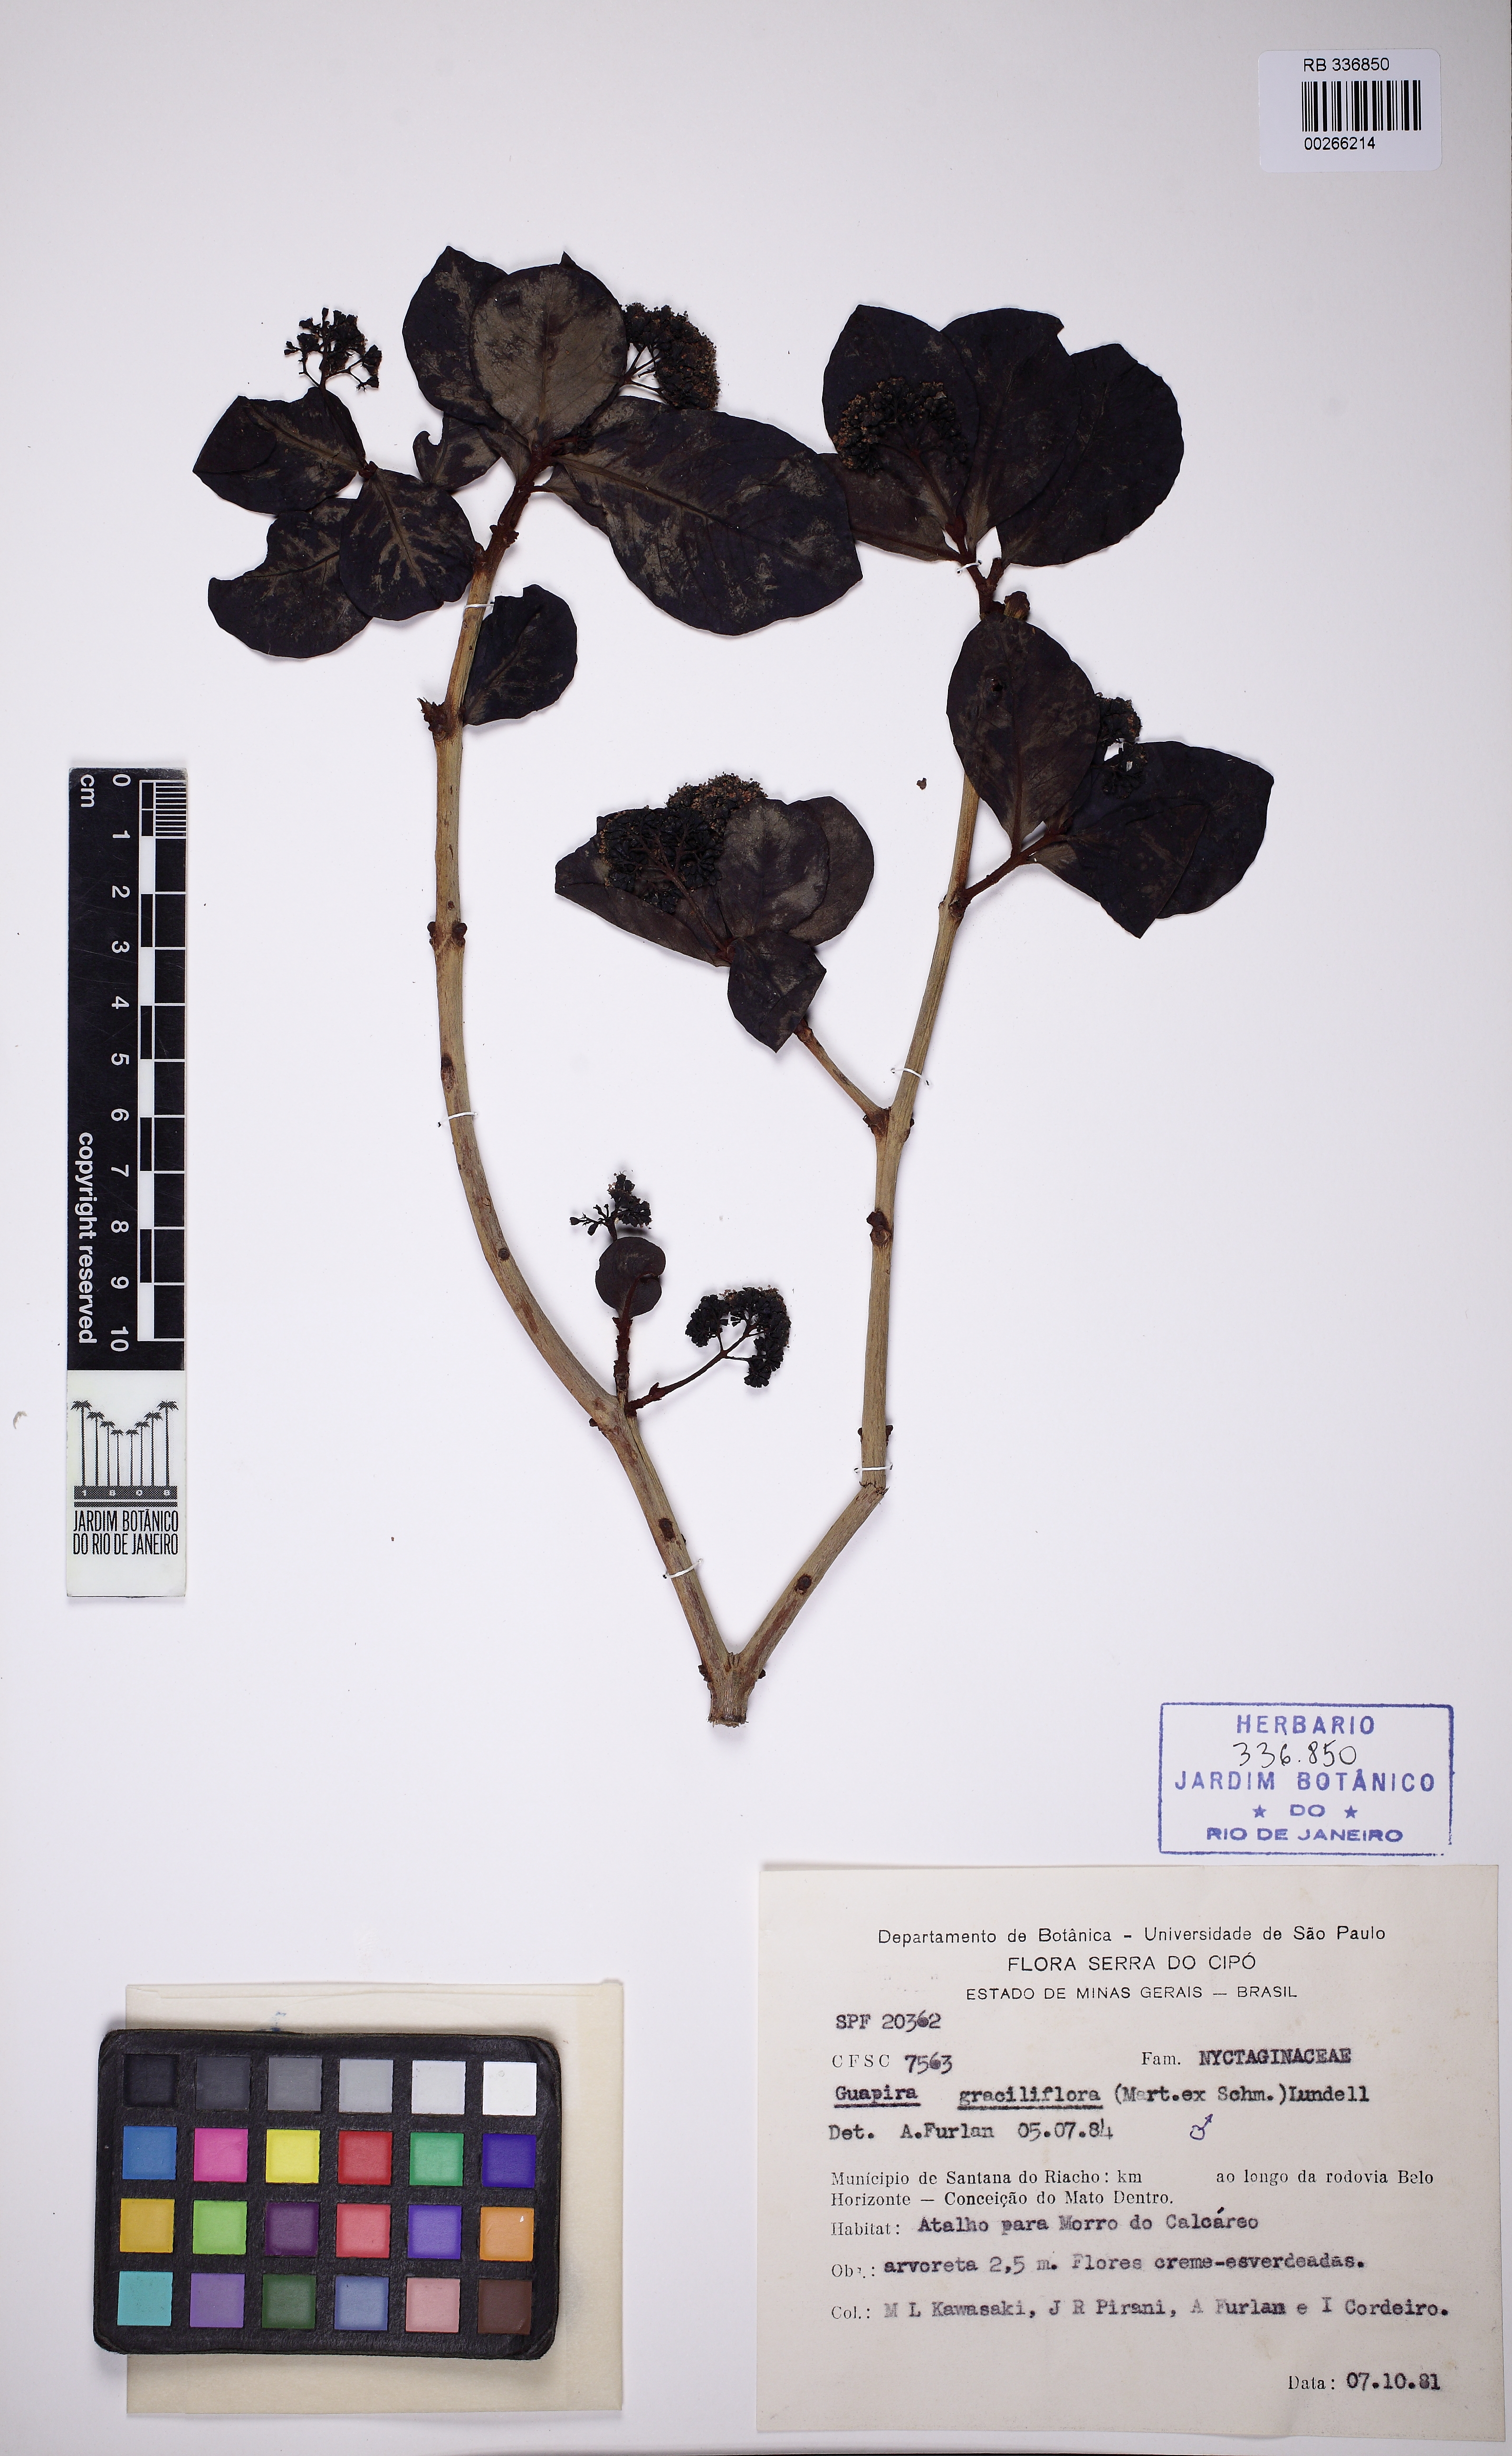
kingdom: Plantae
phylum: Tracheophyta
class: Magnoliopsida
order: Caryophyllales
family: Nyctaginaceae
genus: Guapira
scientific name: Guapira graciliflora
